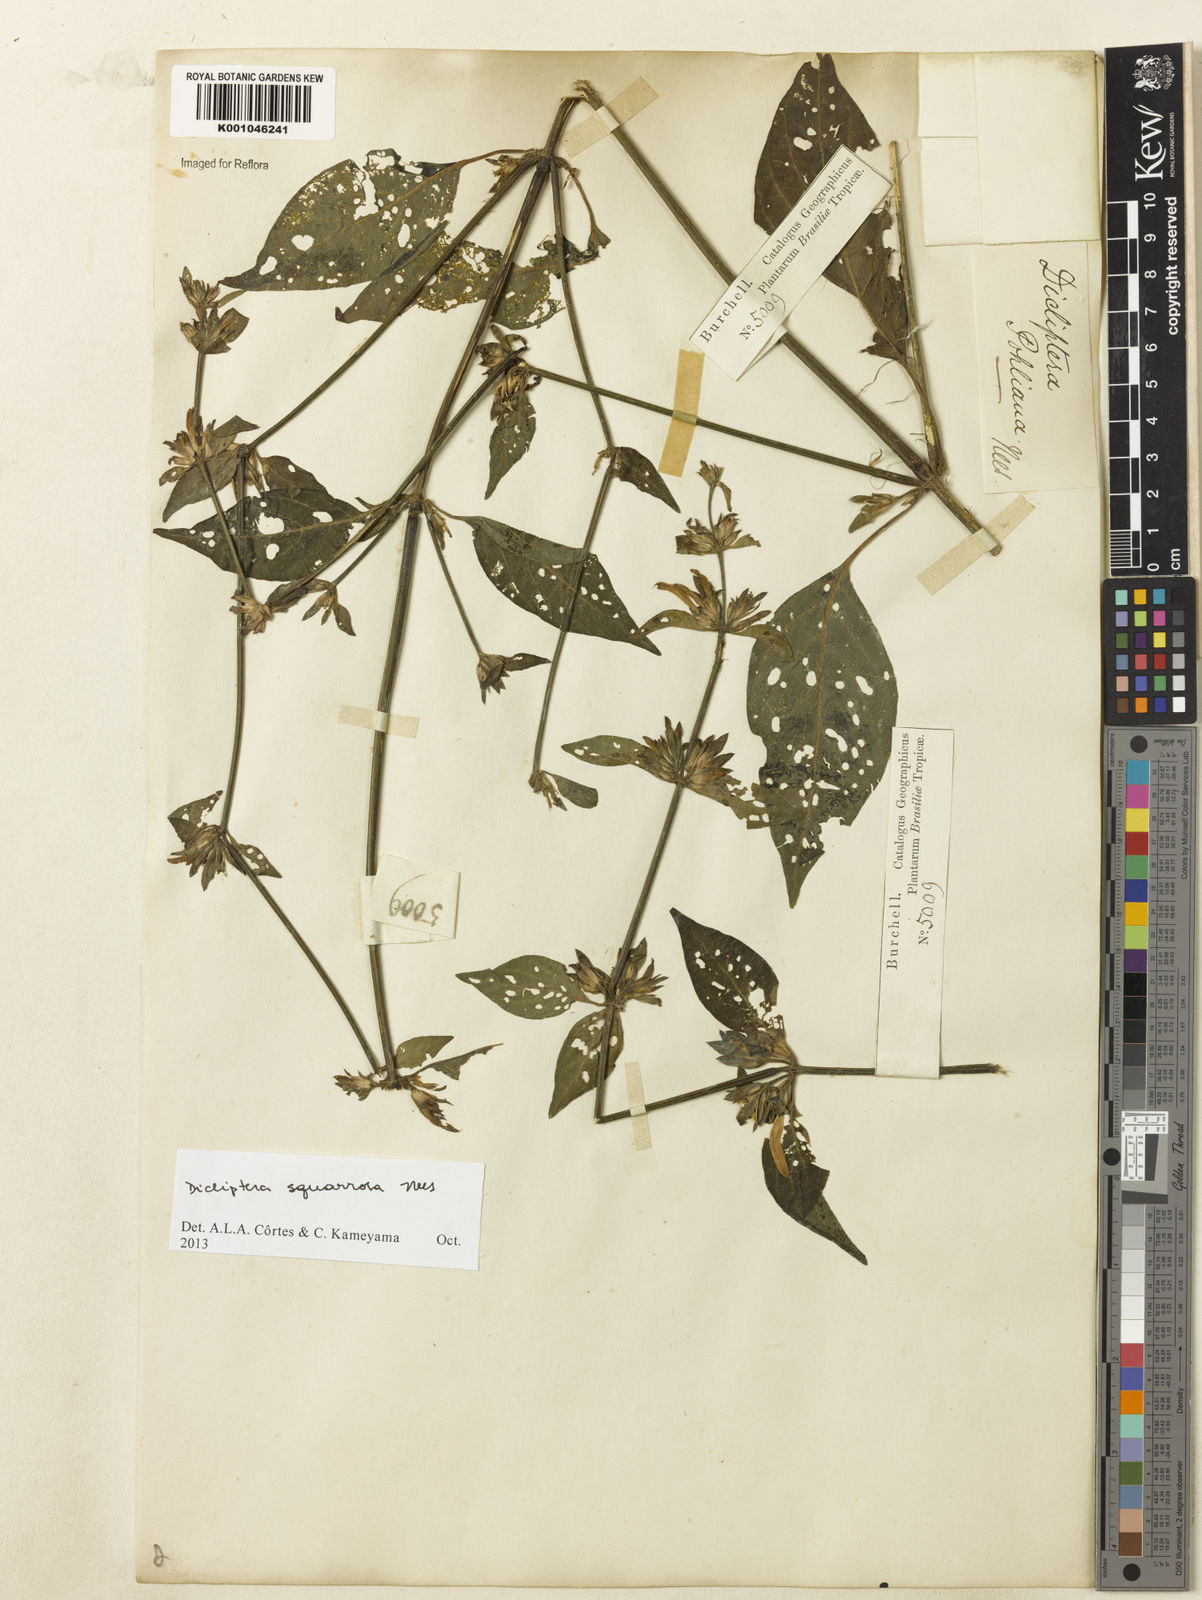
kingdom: Plantae
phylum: Tracheophyta
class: Magnoliopsida
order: Lamiales
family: Acanthaceae
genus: Dicliptera
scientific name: Dicliptera squarrosa
